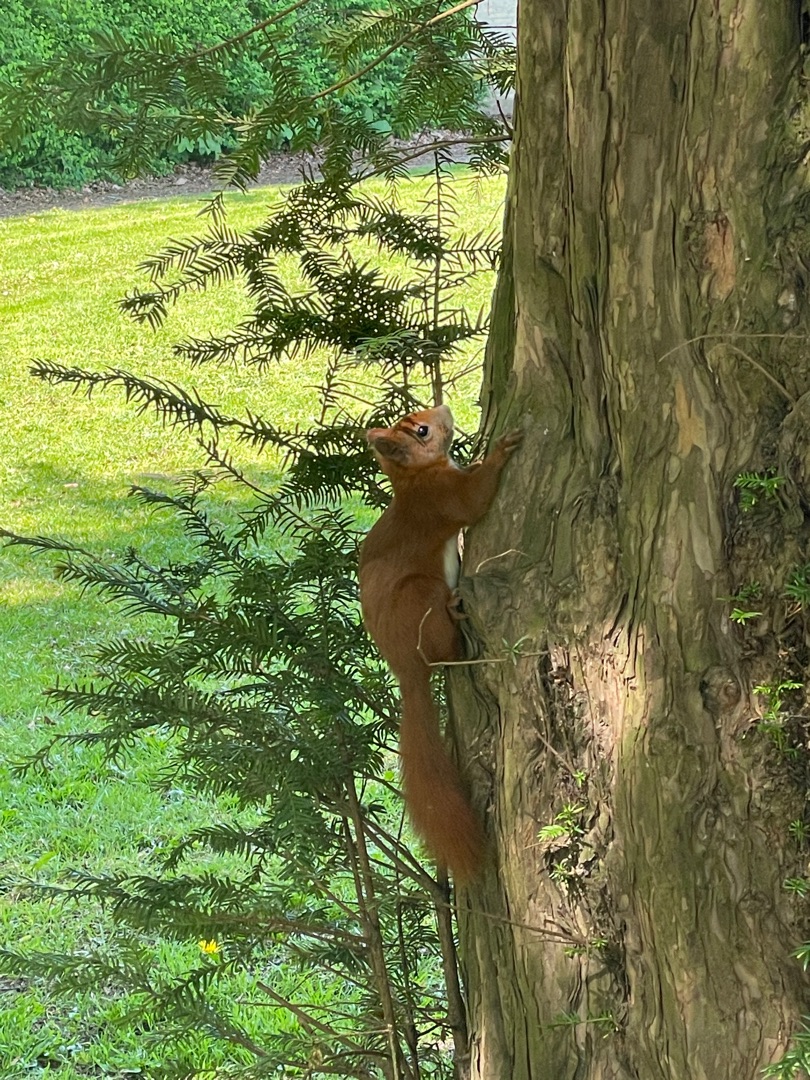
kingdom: Animalia
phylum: Chordata
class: Mammalia
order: Rodentia
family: Sciuridae
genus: Sciurus
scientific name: Sciurus vulgaris
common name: Egern
